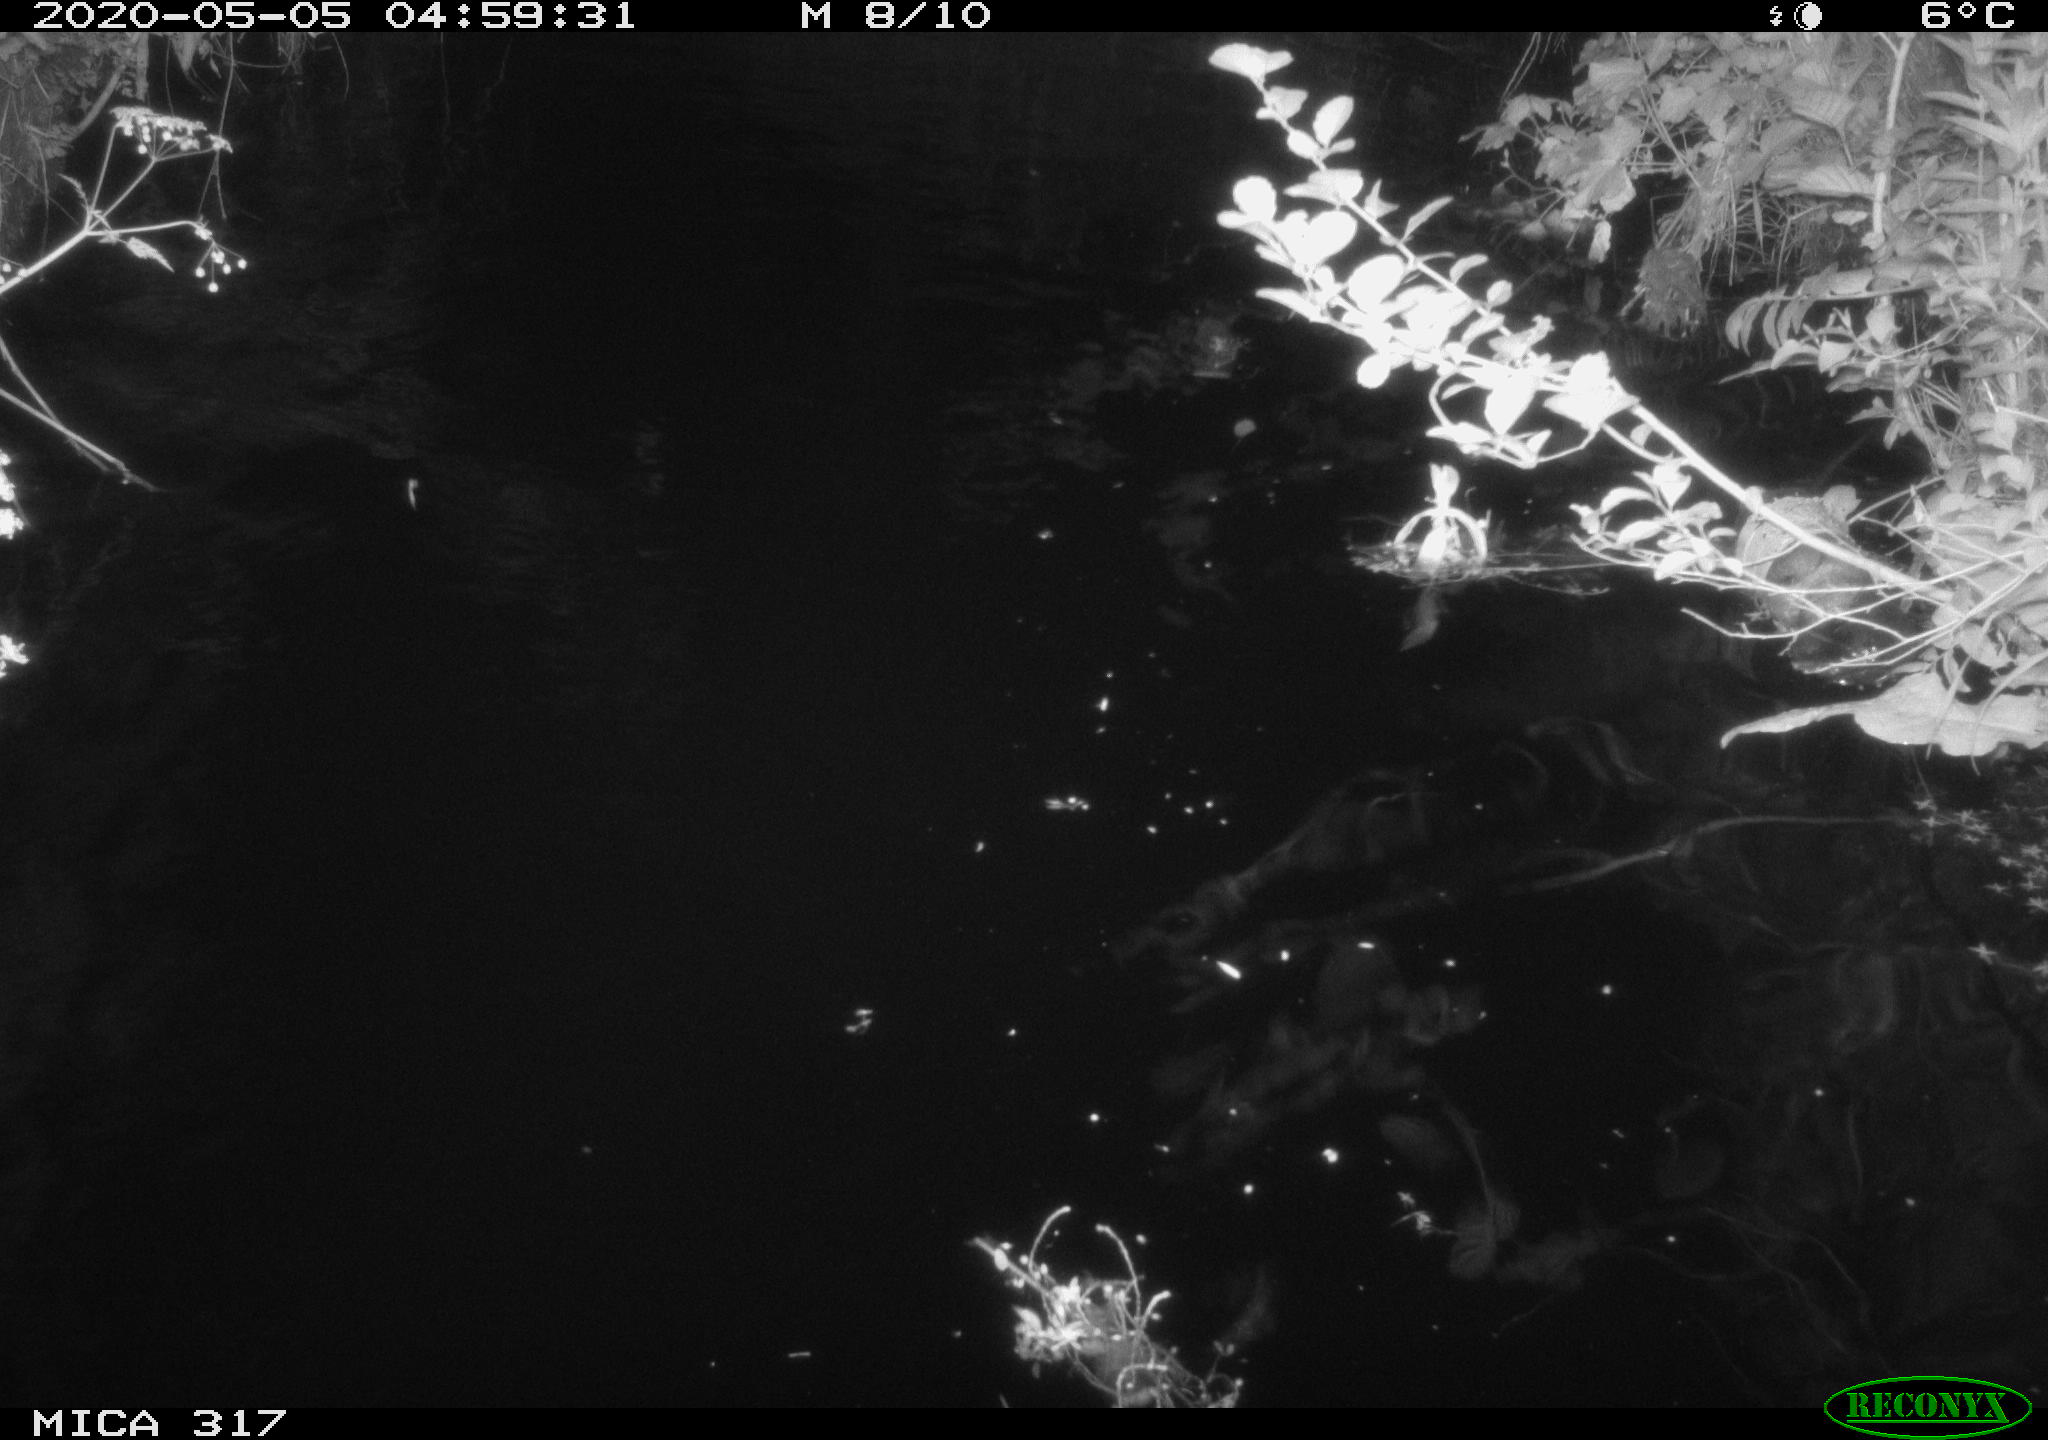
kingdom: Animalia
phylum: Chordata
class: Aves
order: Anseriformes
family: Anatidae
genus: Anas
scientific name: Anas platyrhynchos
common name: Mallard
